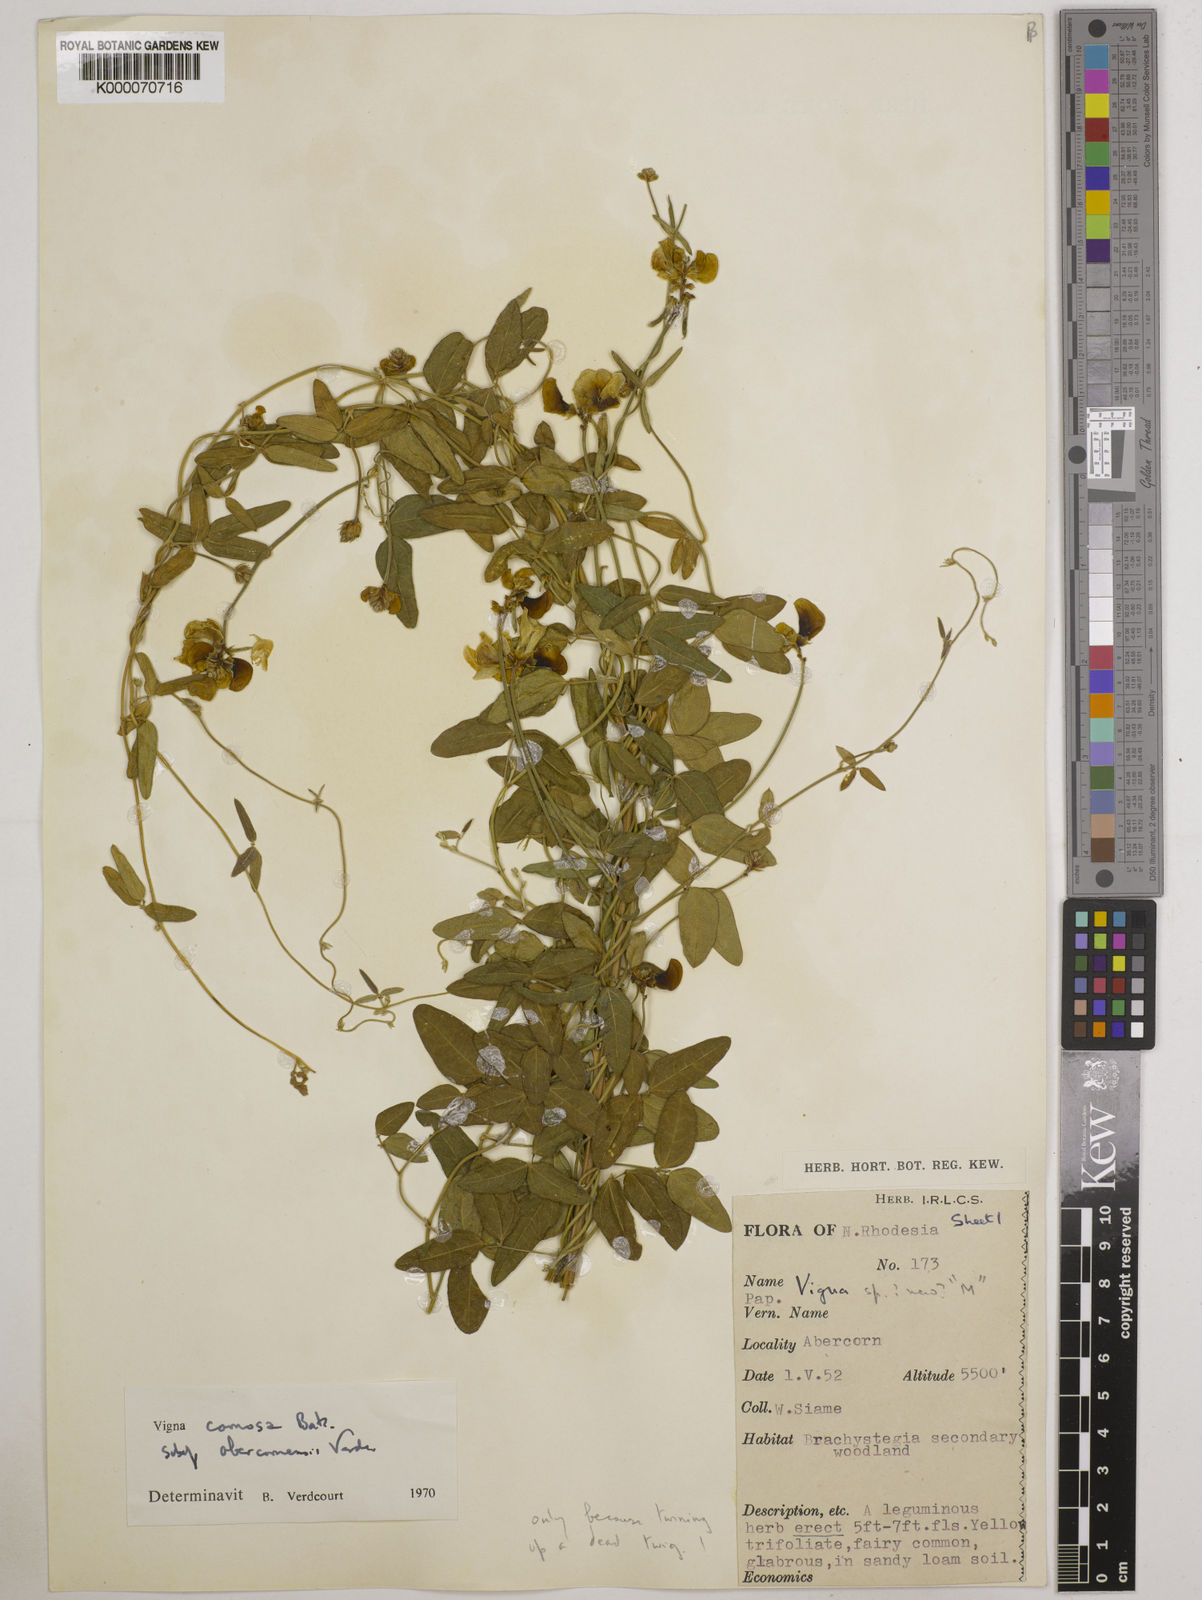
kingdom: Plantae
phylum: Tracheophyta
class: Magnoliopsida
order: Fabales
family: Fabaceae
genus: Vigna
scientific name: Vigna comosa
